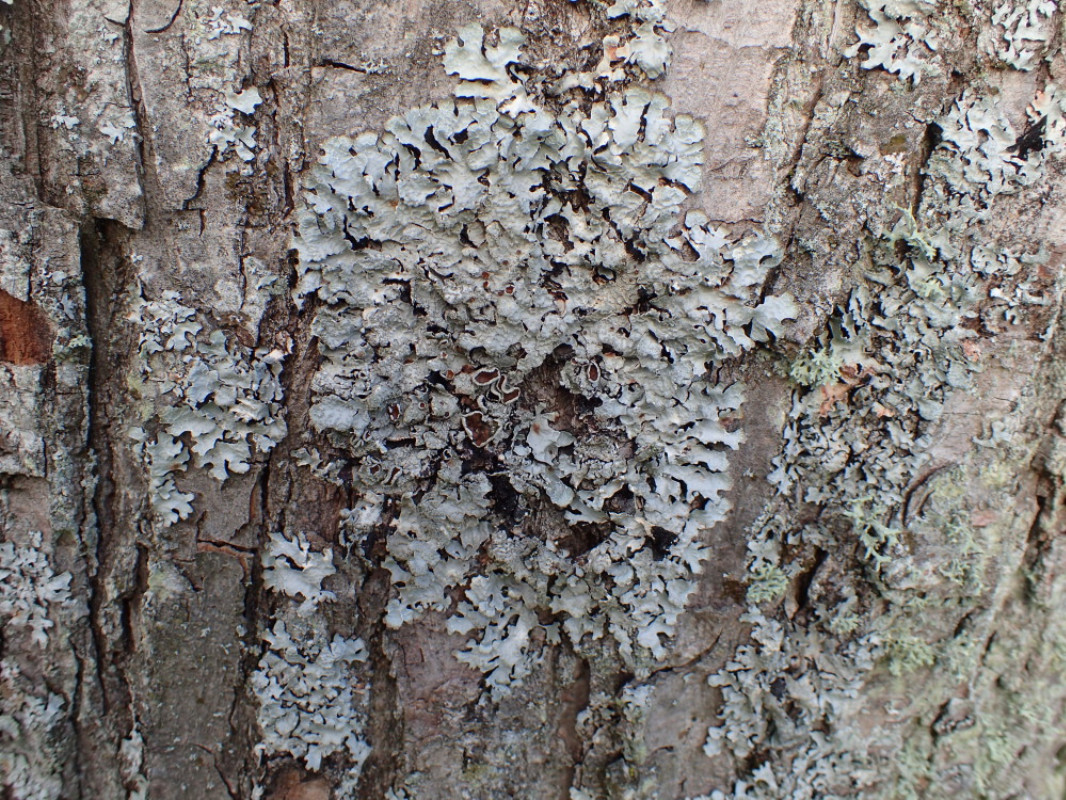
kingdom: Fungi
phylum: Ascomycota
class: Lecanoromycetes
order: Lecanorales
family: Parmeliaceae
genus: Parmelia
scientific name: Parmelia sulcata
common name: rynket skållav
